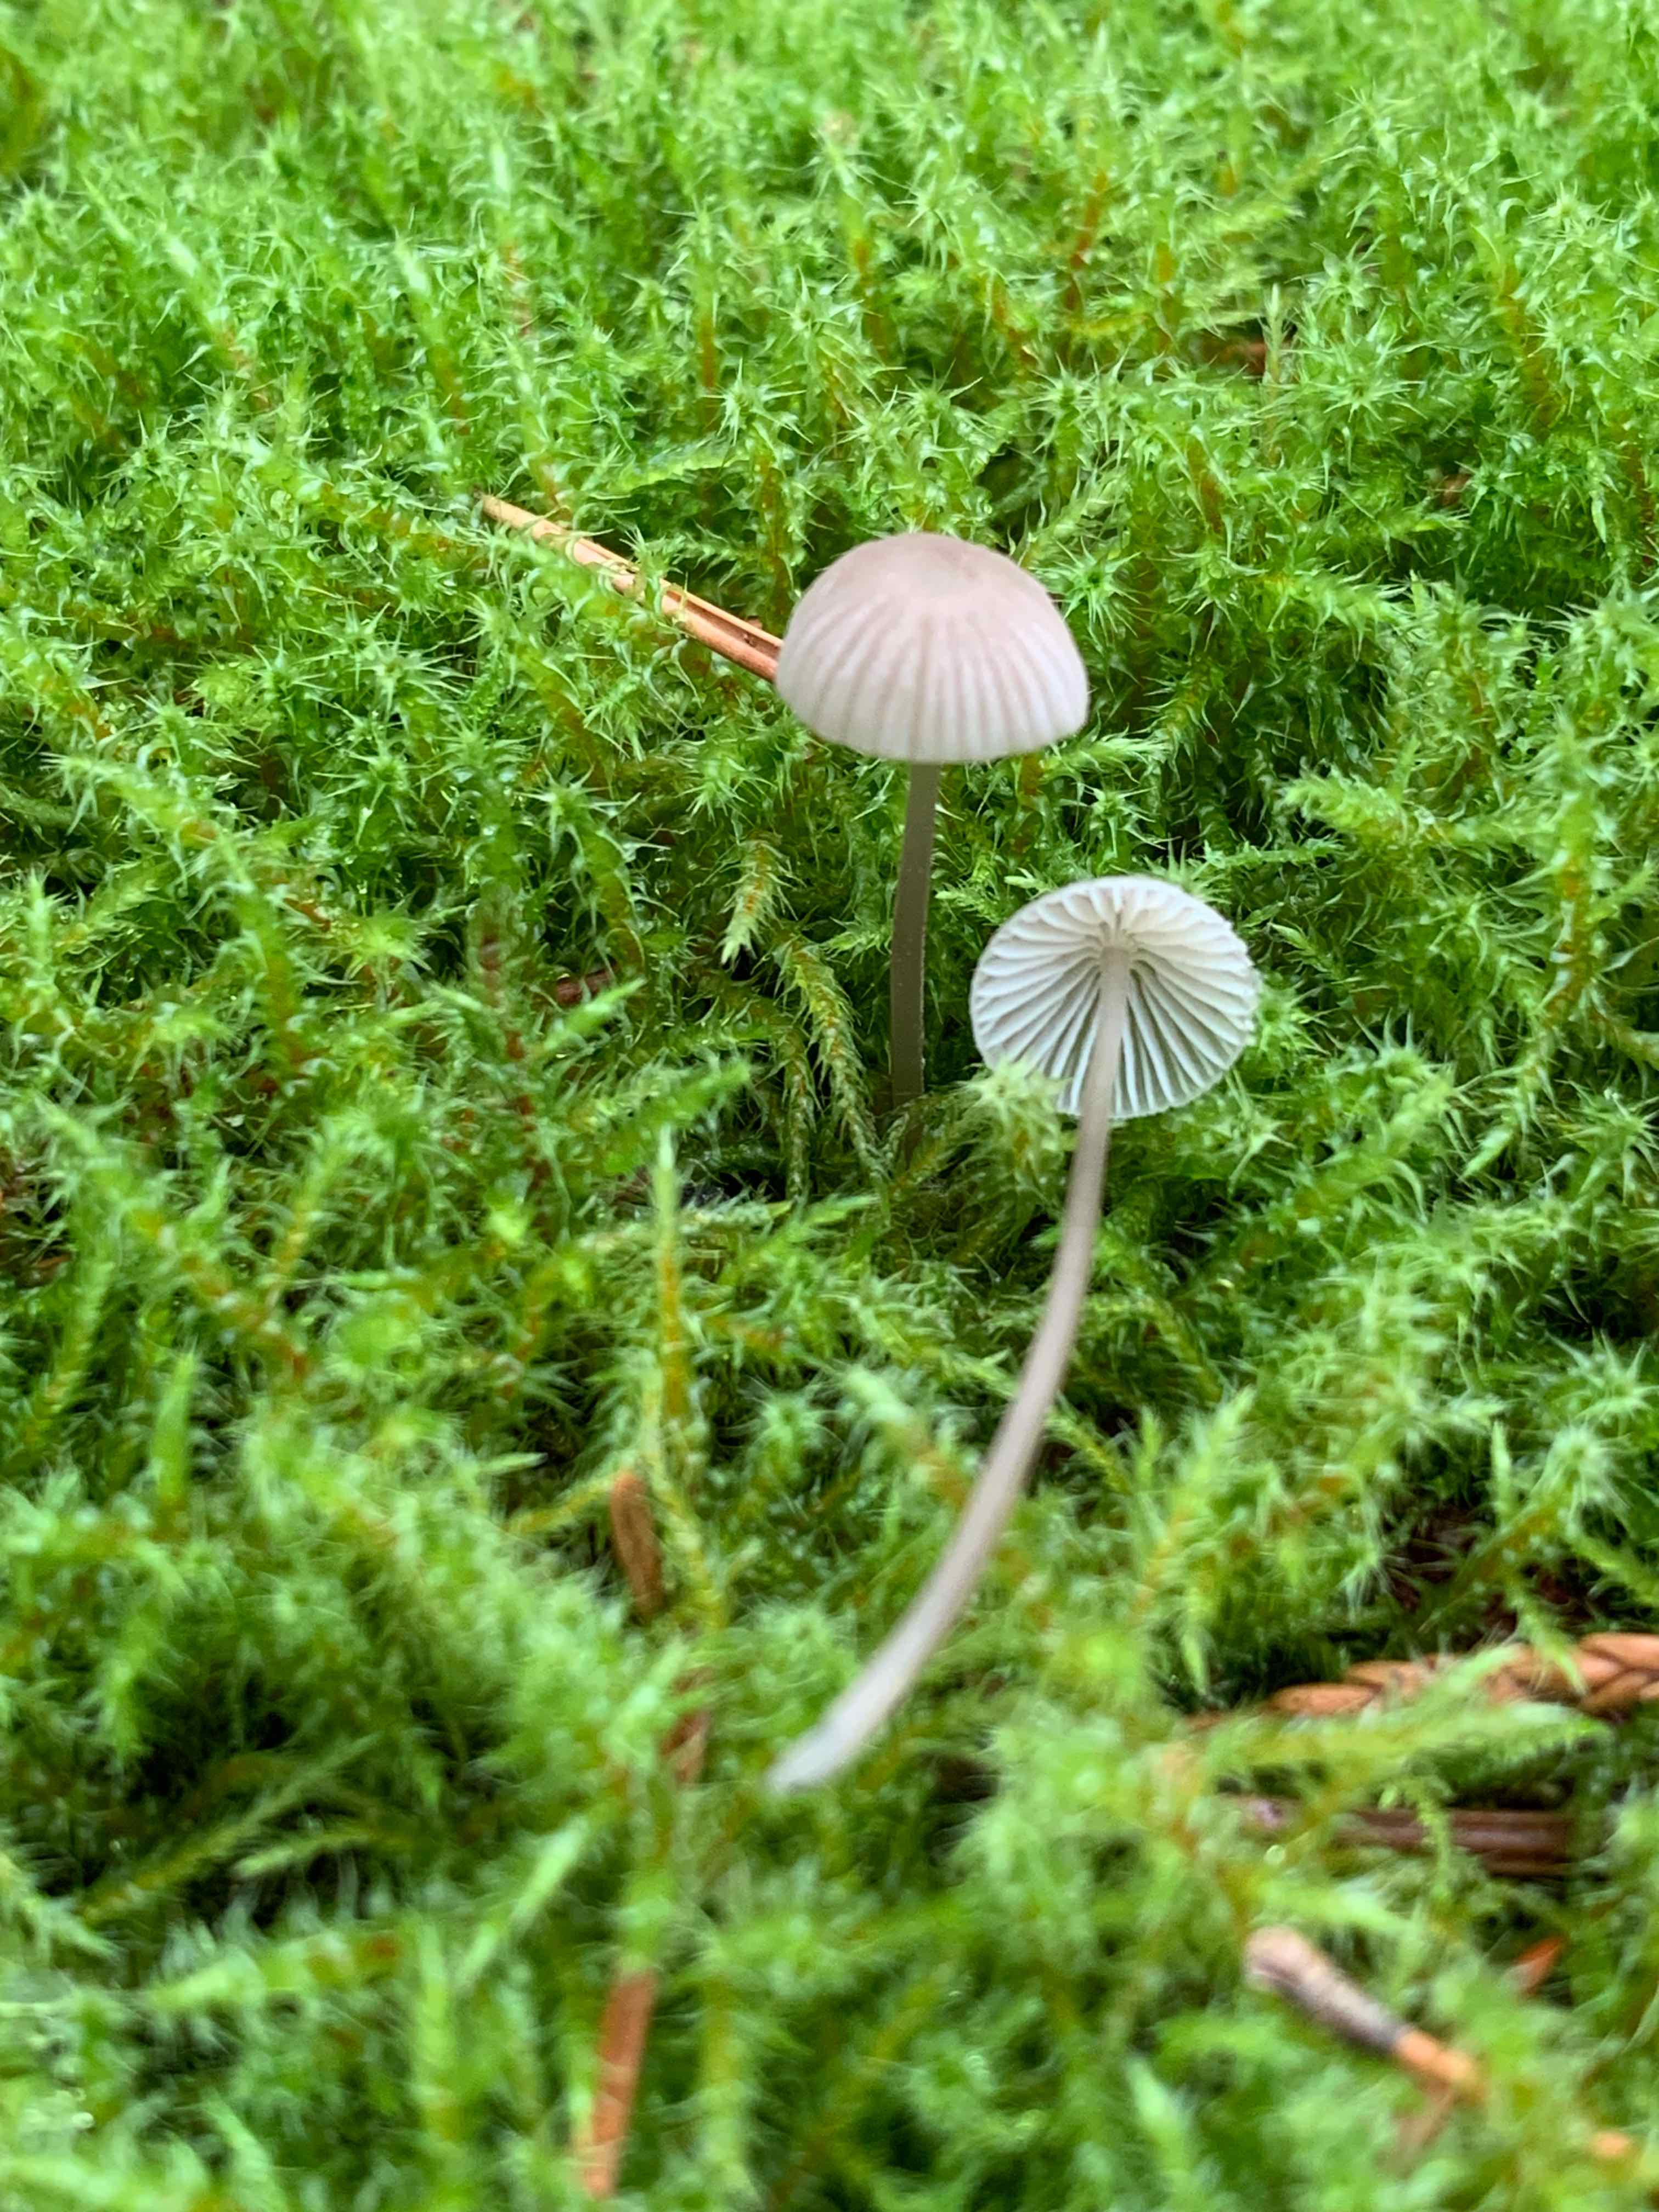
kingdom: Fungi
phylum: Basidiomycota
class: Agaricomycetes
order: Agaricales
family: Mycenaceae
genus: Mycena
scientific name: Mycena leptocephala
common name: klor-huesvamp
